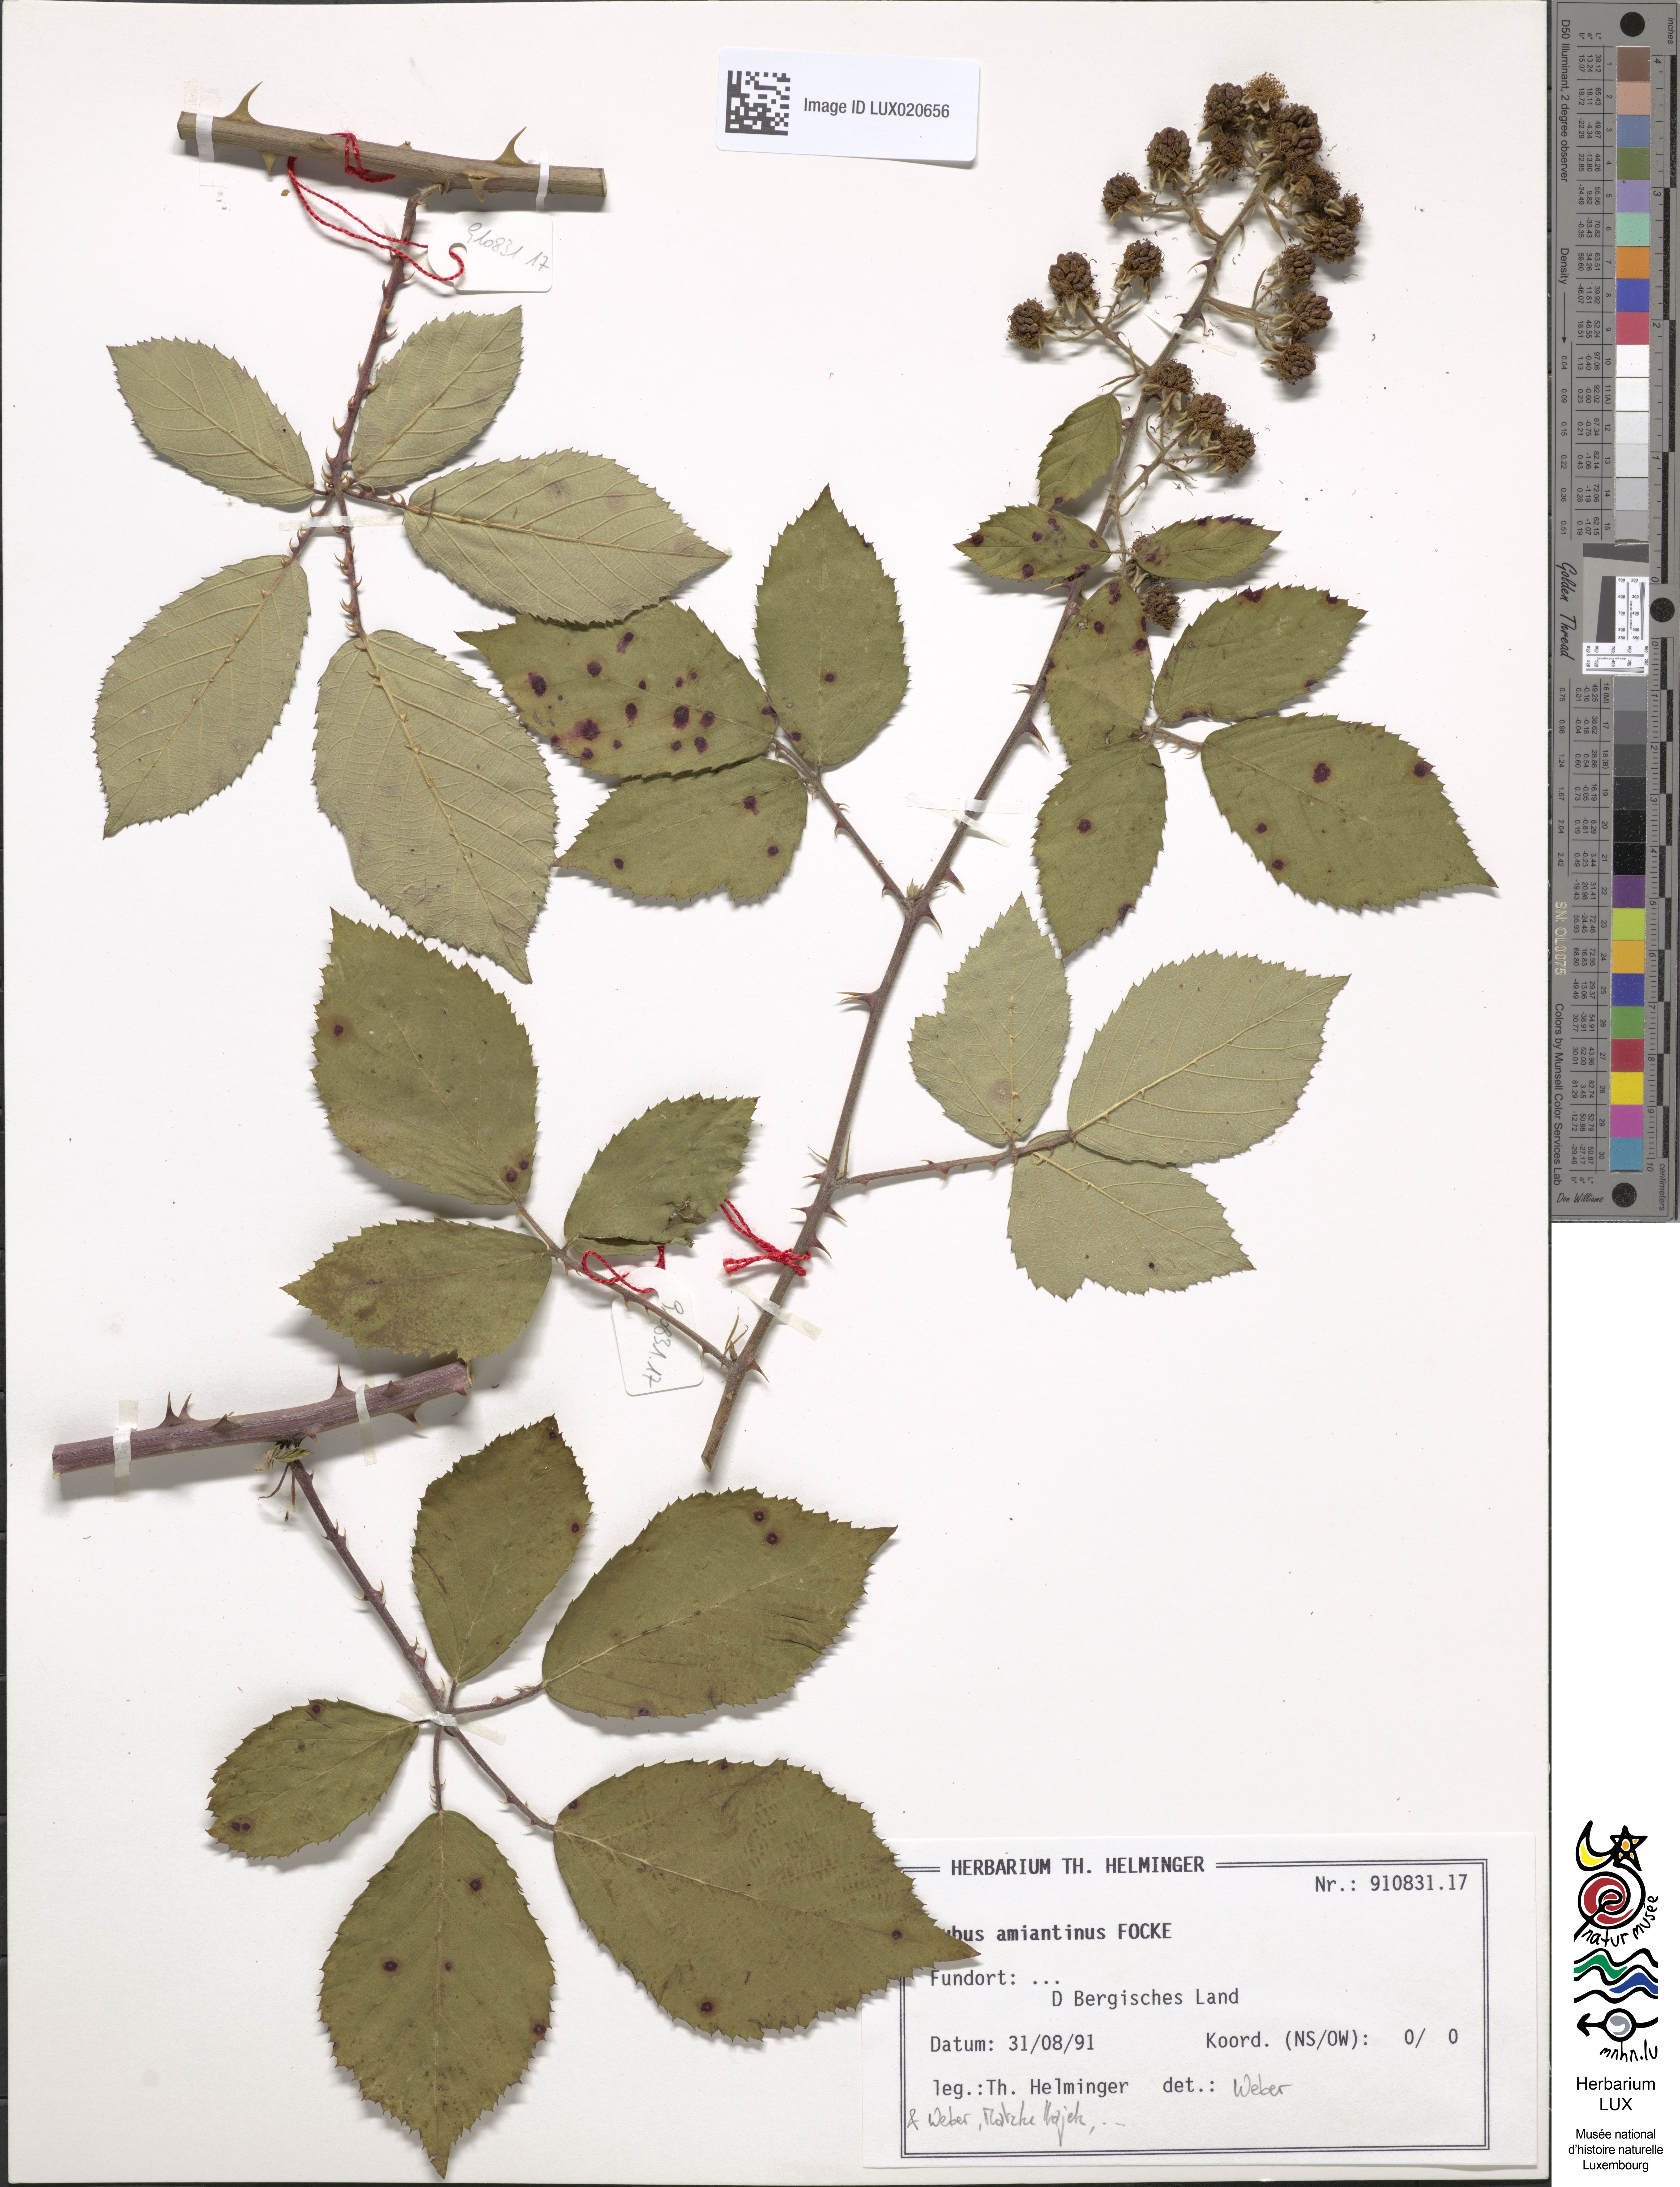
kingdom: Plantae
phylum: Tracheophyta
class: Magnoliopsida
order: Rosales
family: Rosaceae
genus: Rubus
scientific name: Rubus amiantinus
